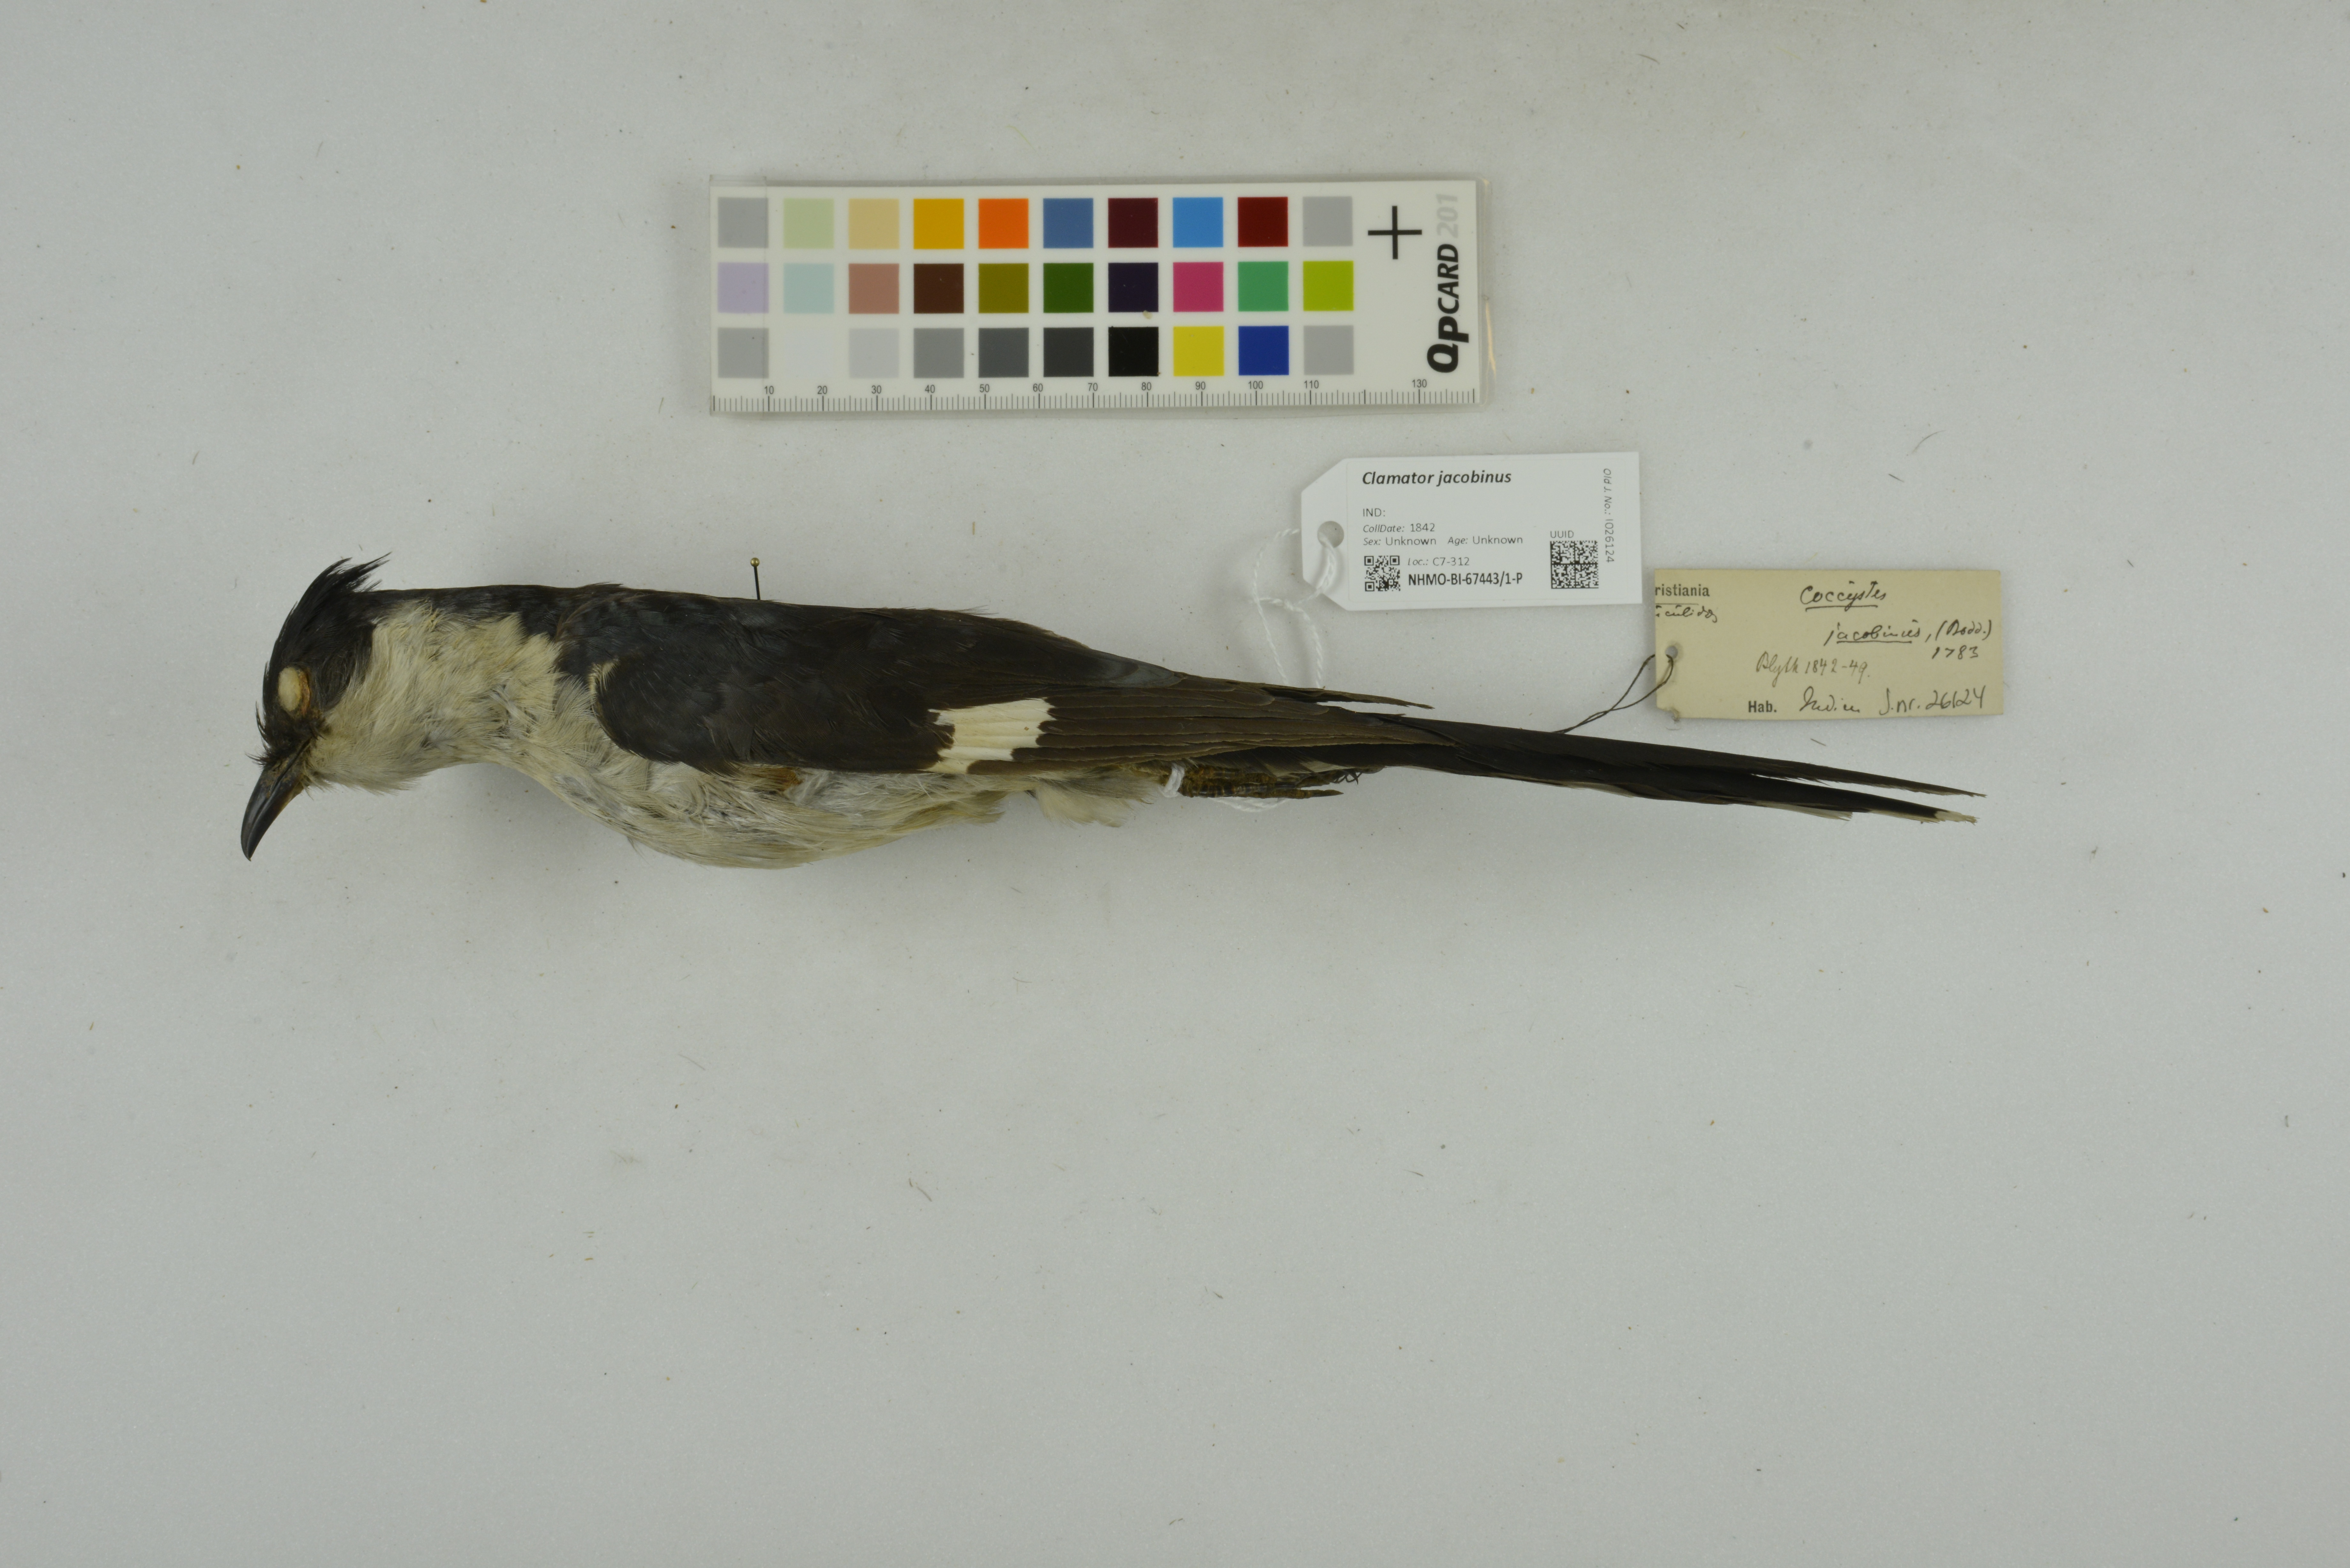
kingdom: Animalia
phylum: Chordata
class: Aves
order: Cuculiformes
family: Cuculidae
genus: Clamator
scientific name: Clamator jacobinus
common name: Jacobin cuckoo
